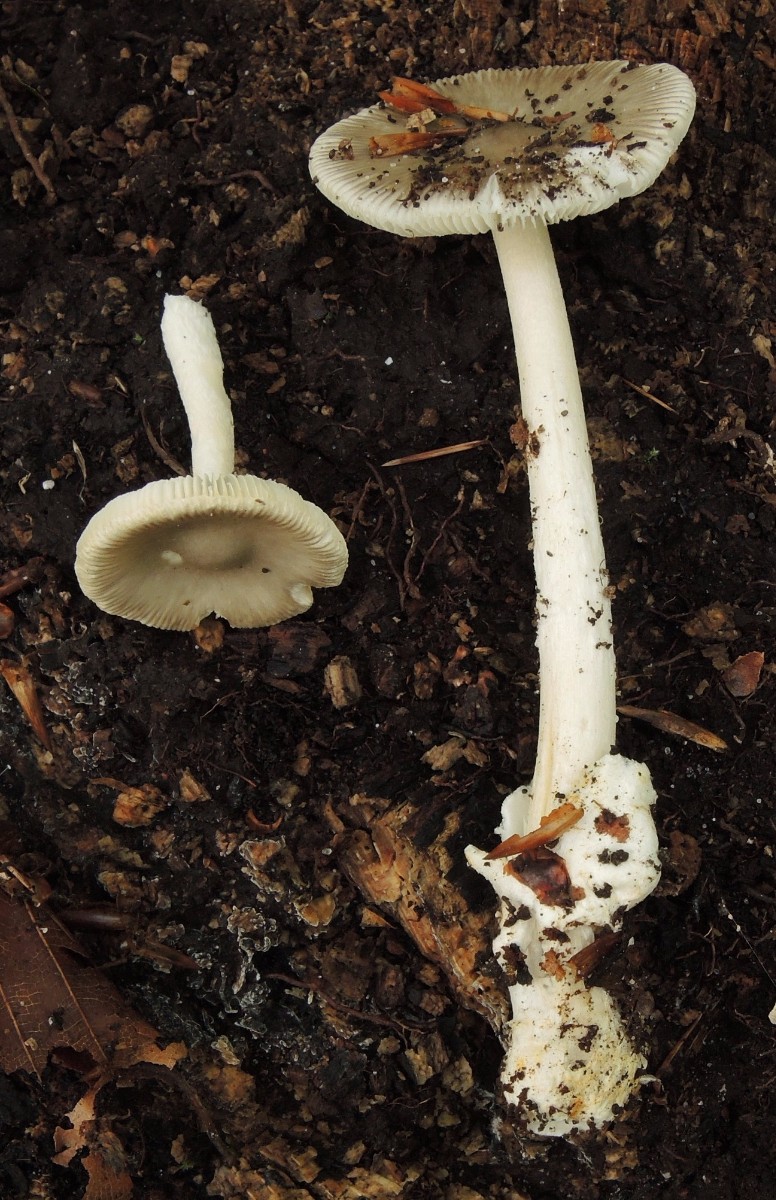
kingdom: Fungi
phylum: Basidiomycota
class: Agaricomycetes
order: Agaricales
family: Amanitaceae
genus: Amanita
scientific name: Amanita
